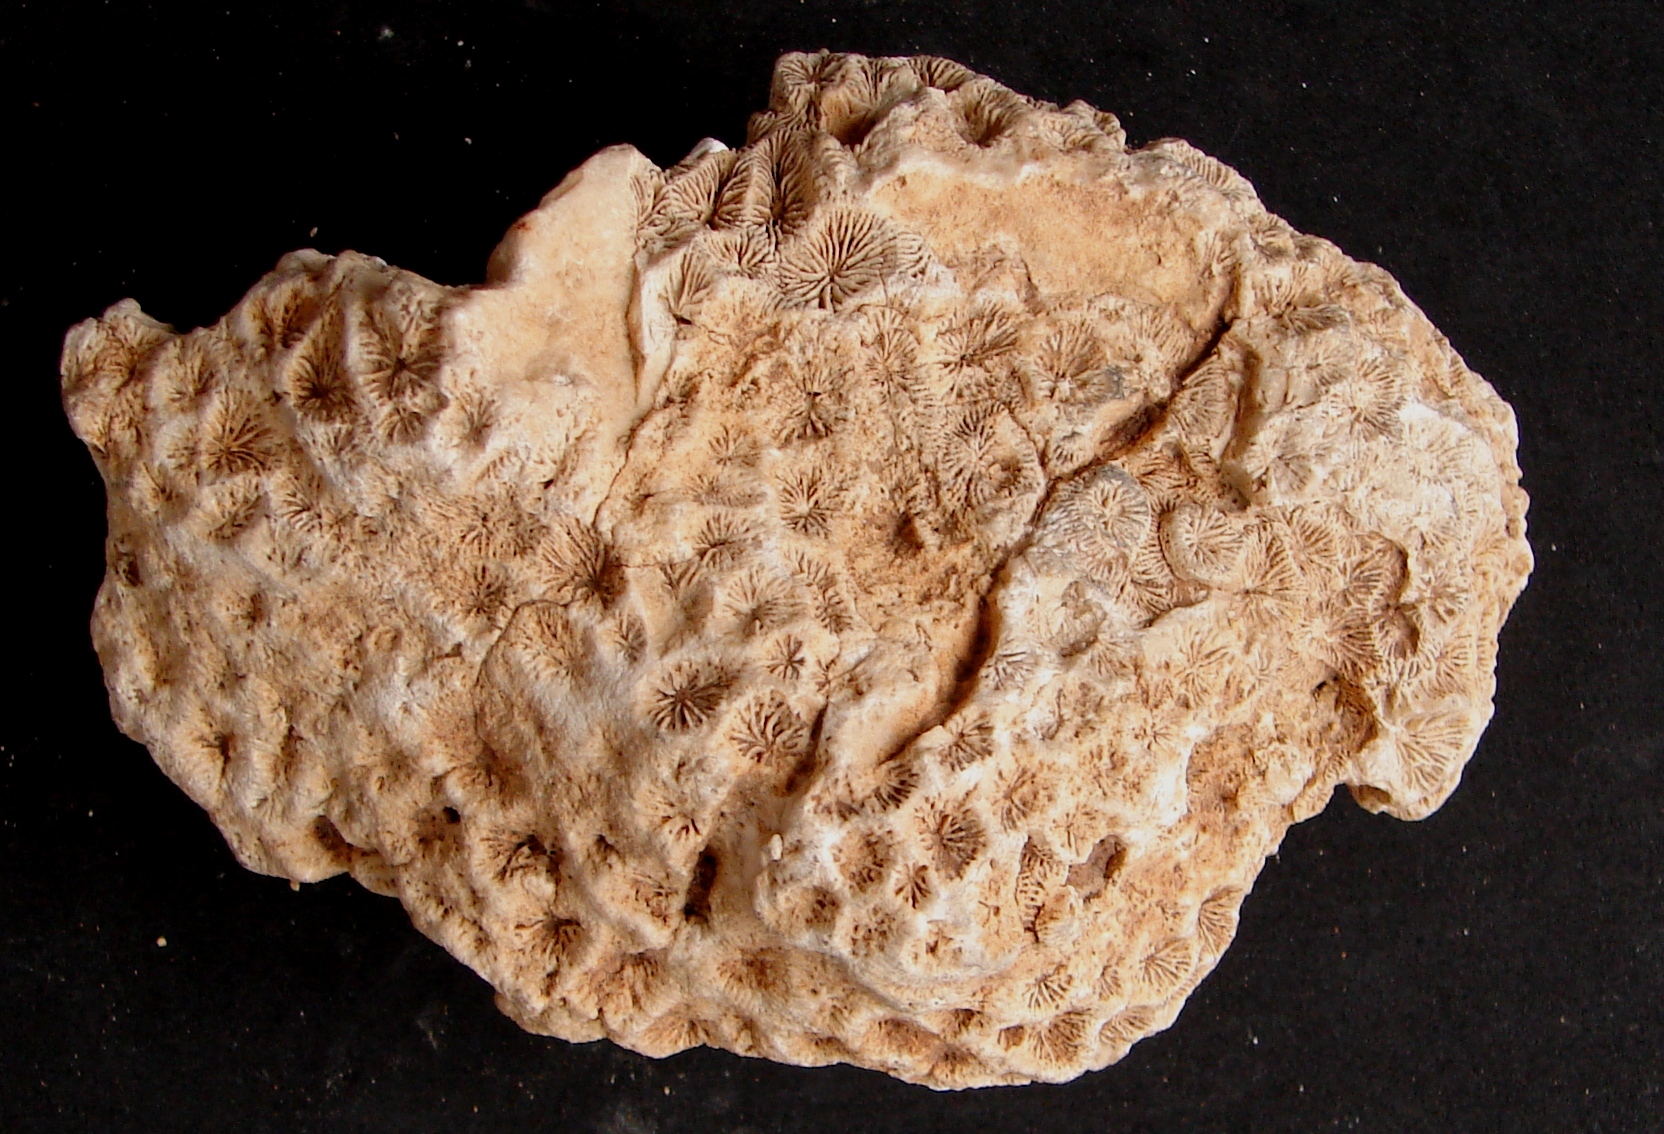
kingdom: Animalia
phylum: Cnidaria
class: Anthozoa
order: Scleractinia
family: Thecosmiliidae
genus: Isastrea
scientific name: Isastrea bernardiana
